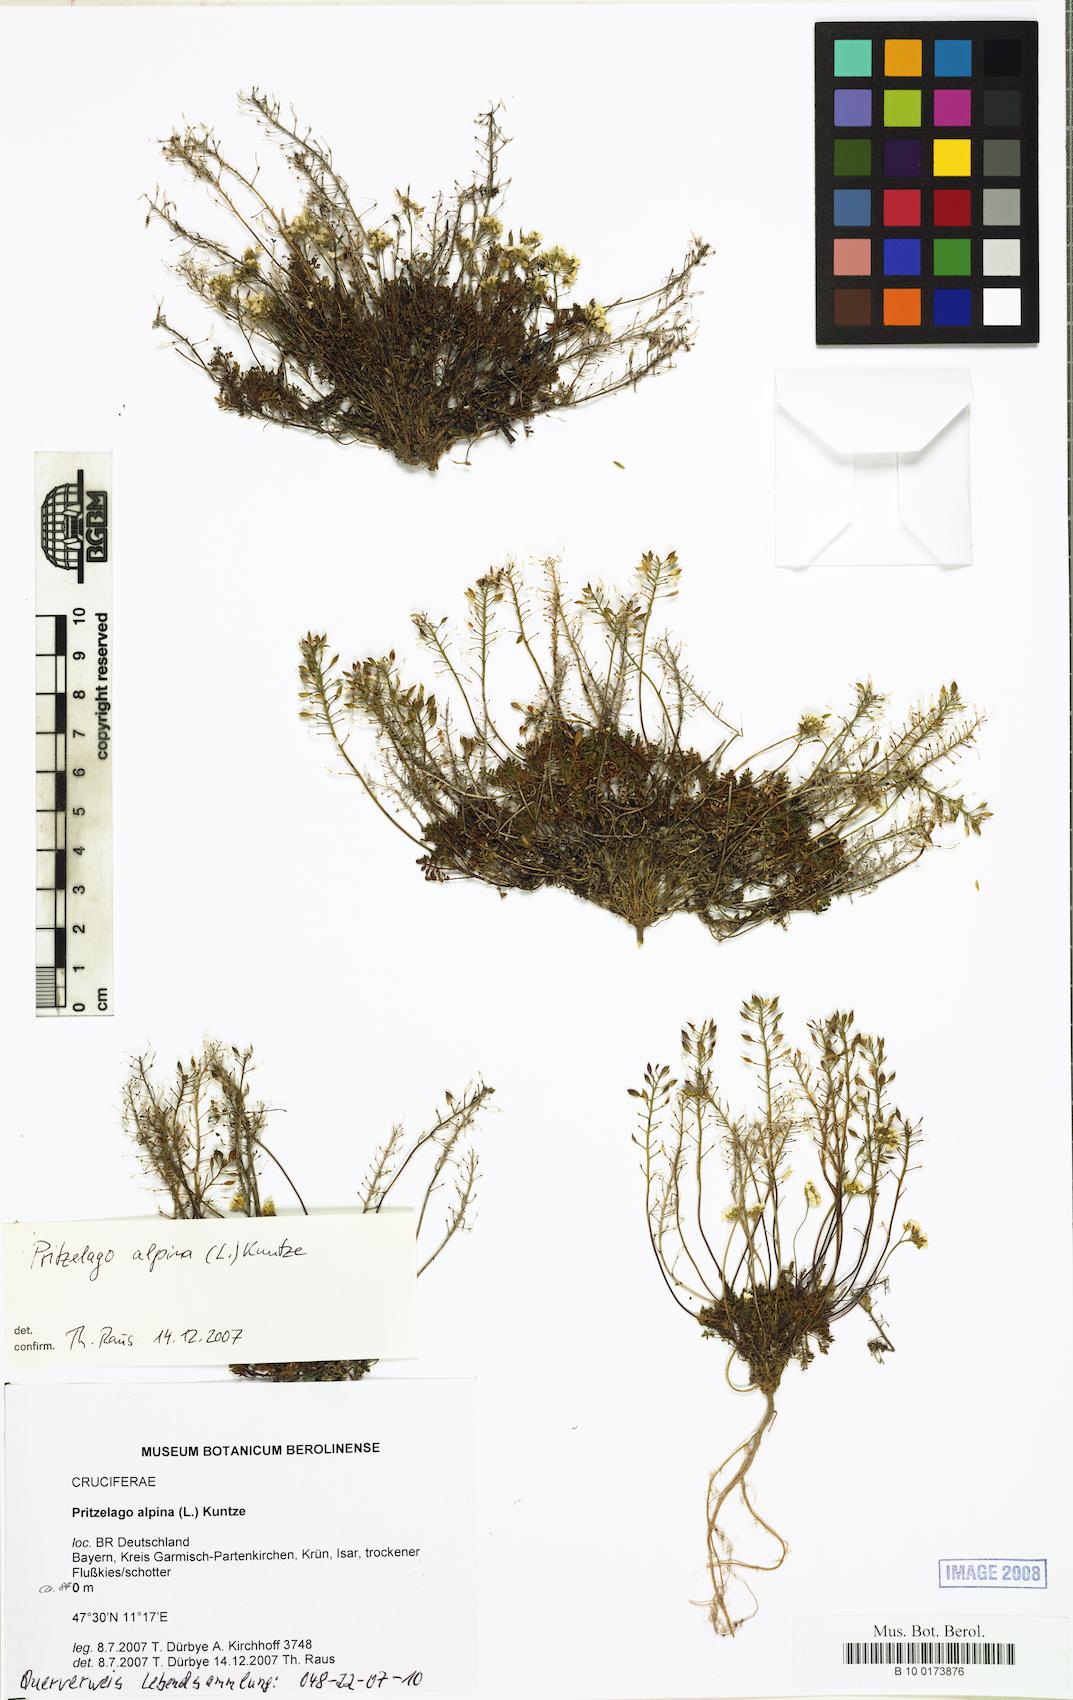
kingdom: Plantae
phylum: Tracheophyta
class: Magnoliopsida
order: Brassicales
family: Brassicaceae
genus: Hornungia
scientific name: Hornungia alpina
